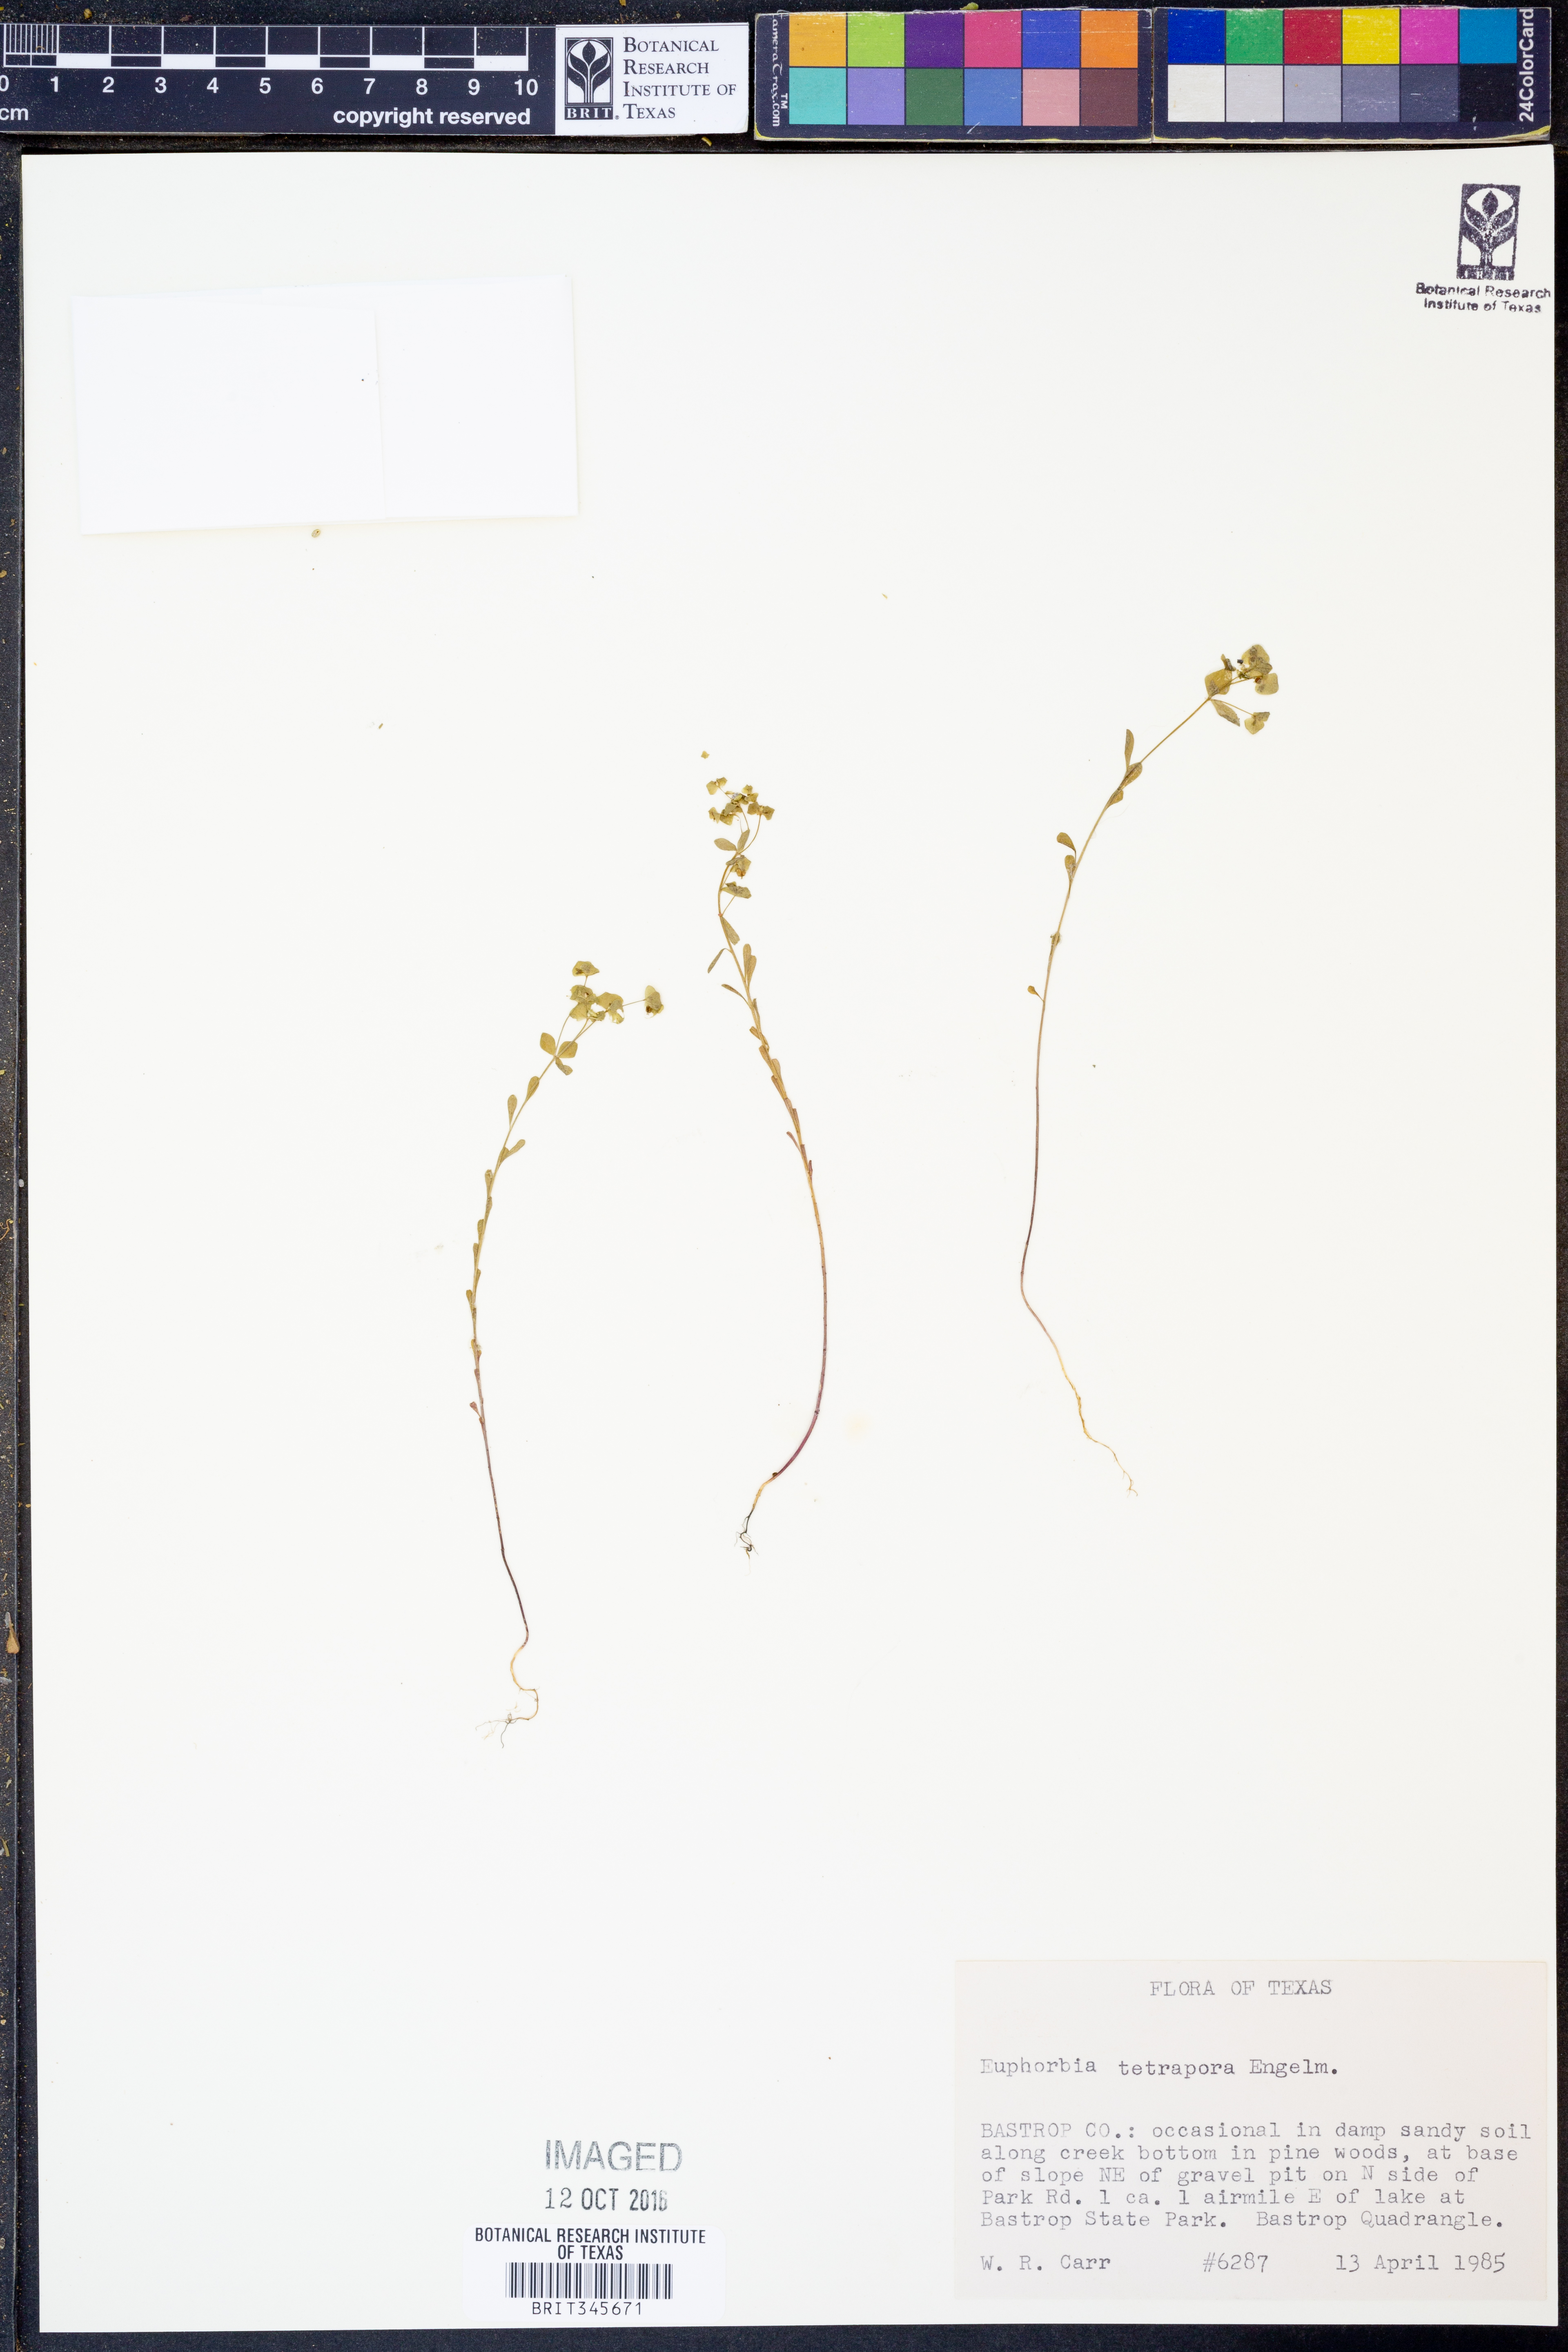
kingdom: Plantae
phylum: Tracheophyta
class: Magnoliopsida
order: Malpighiales
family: Euphorbiaceae
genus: Euphorbia
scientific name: Euphorbia tetrapora
